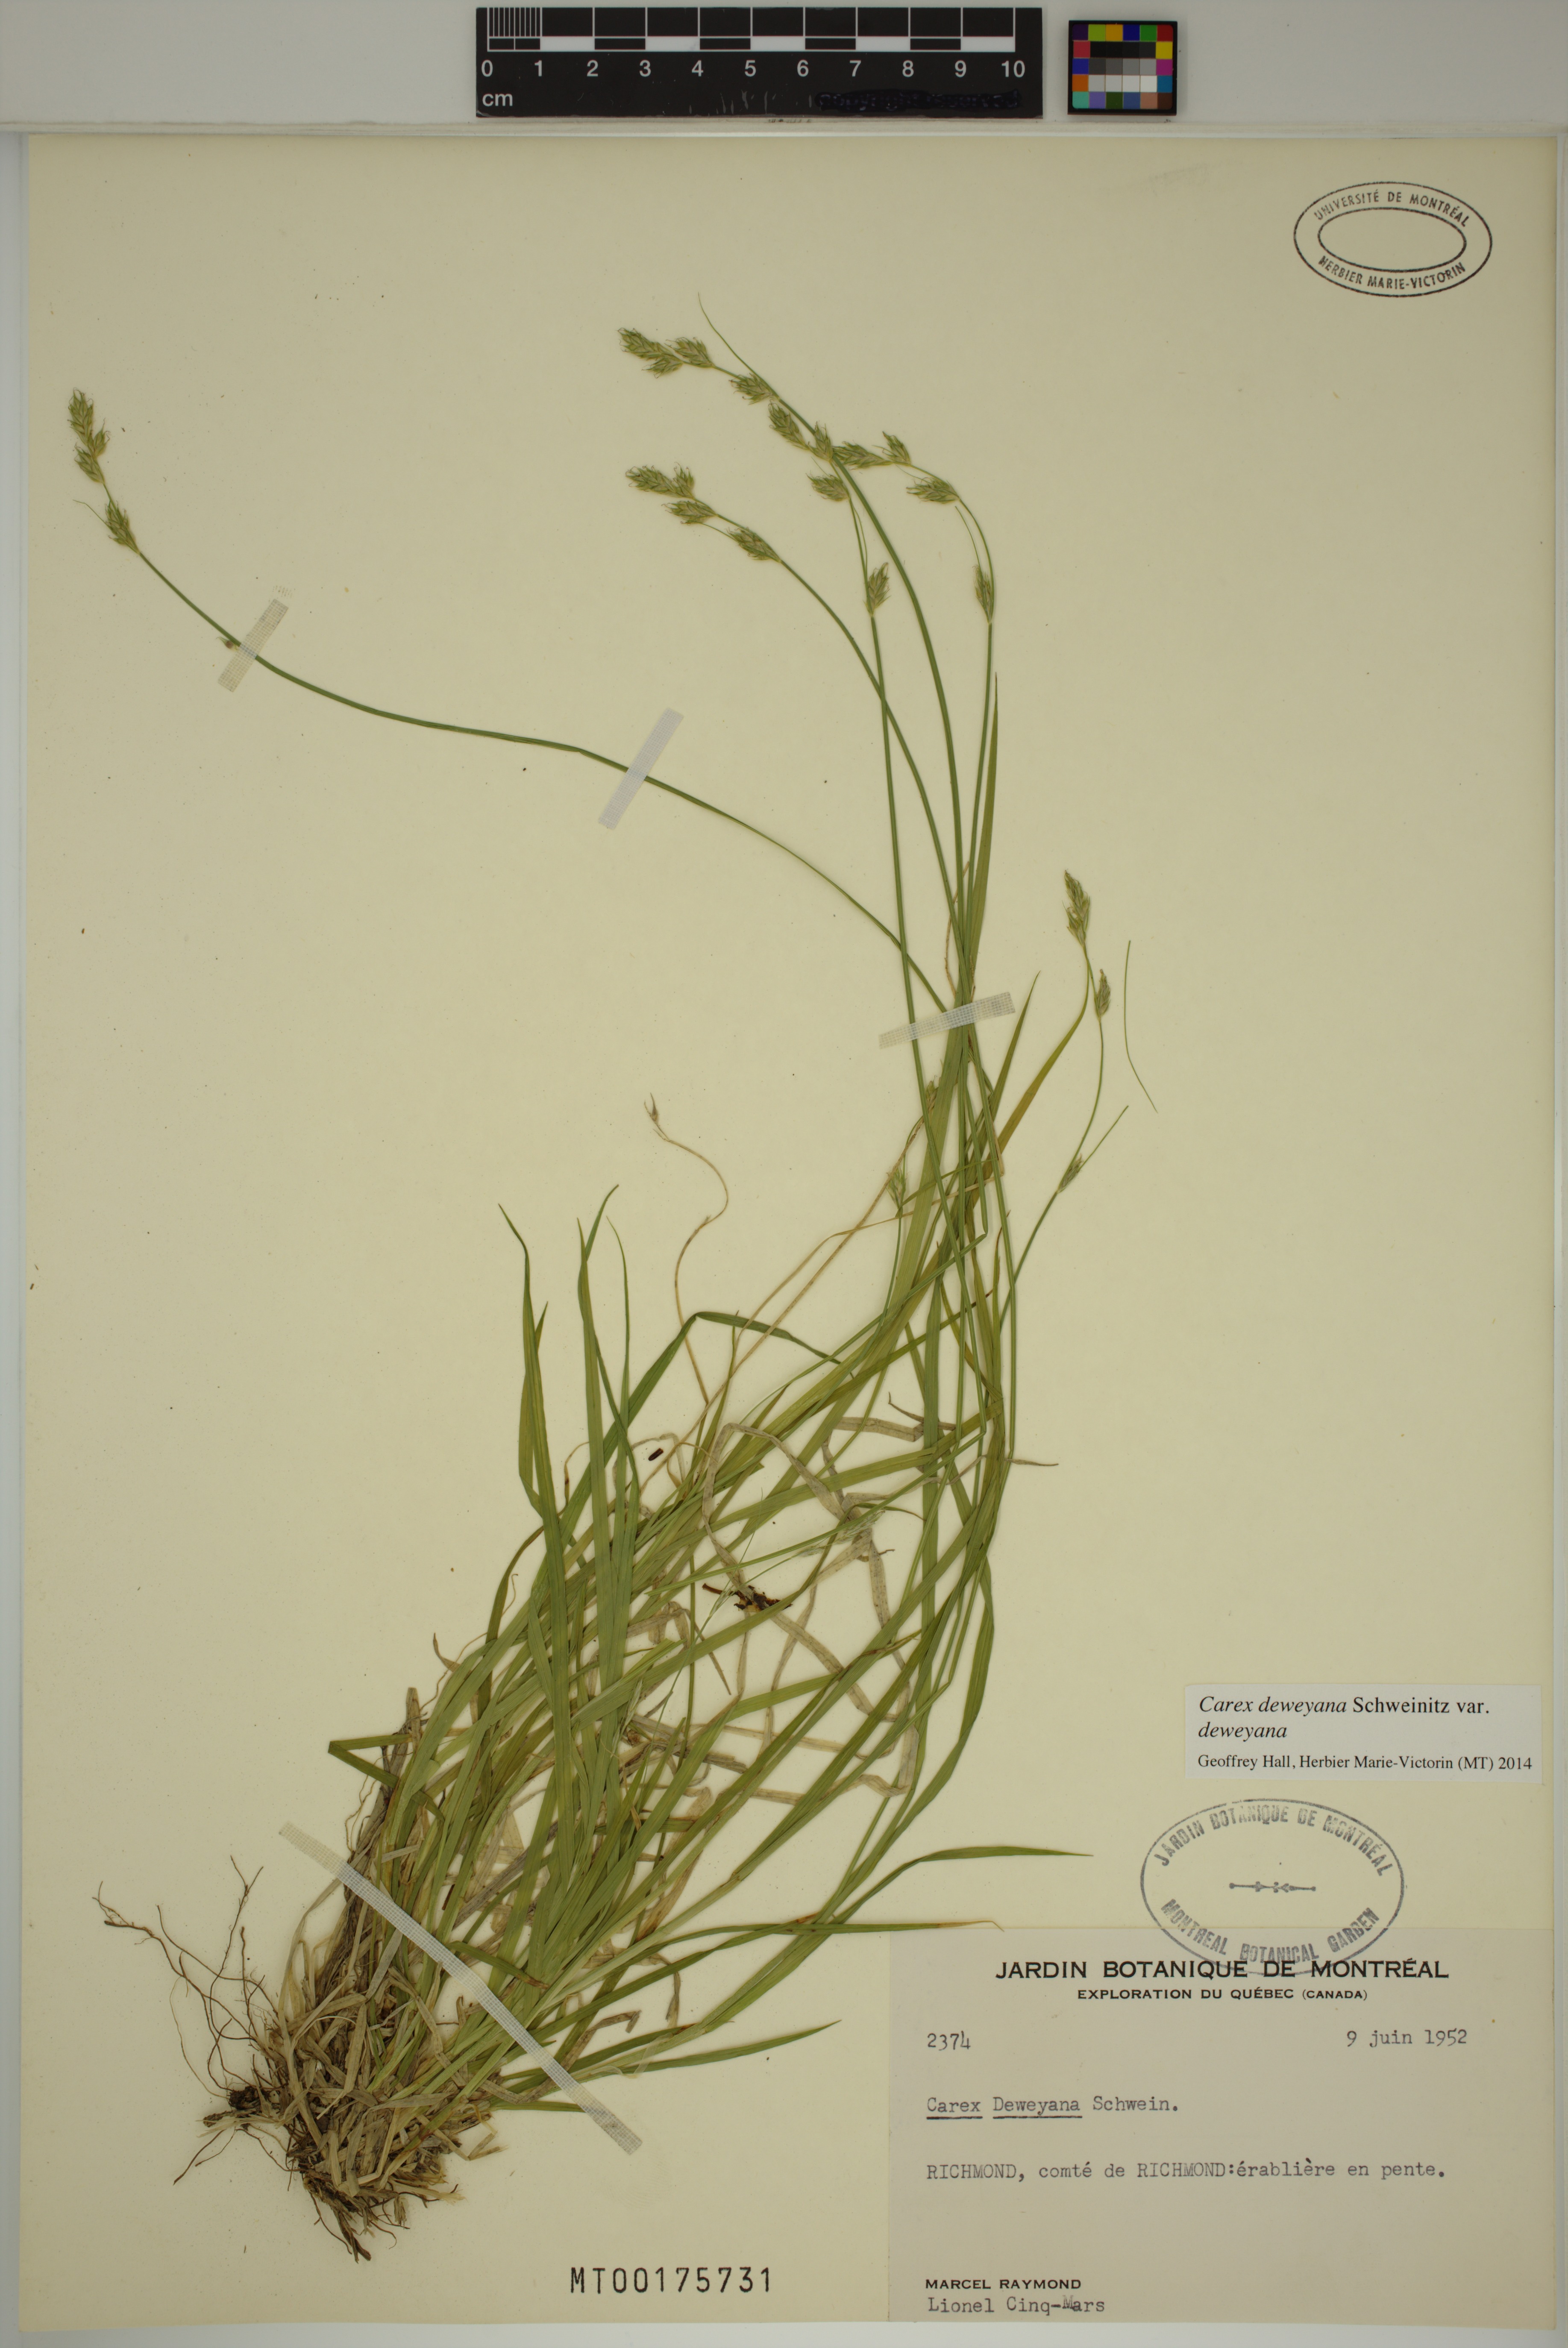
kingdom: Plantae
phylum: Tracheophyta
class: Liliopsida
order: Poales
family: Cyperaceae
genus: Carex
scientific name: Carex deweyana
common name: Dewey's sedge
